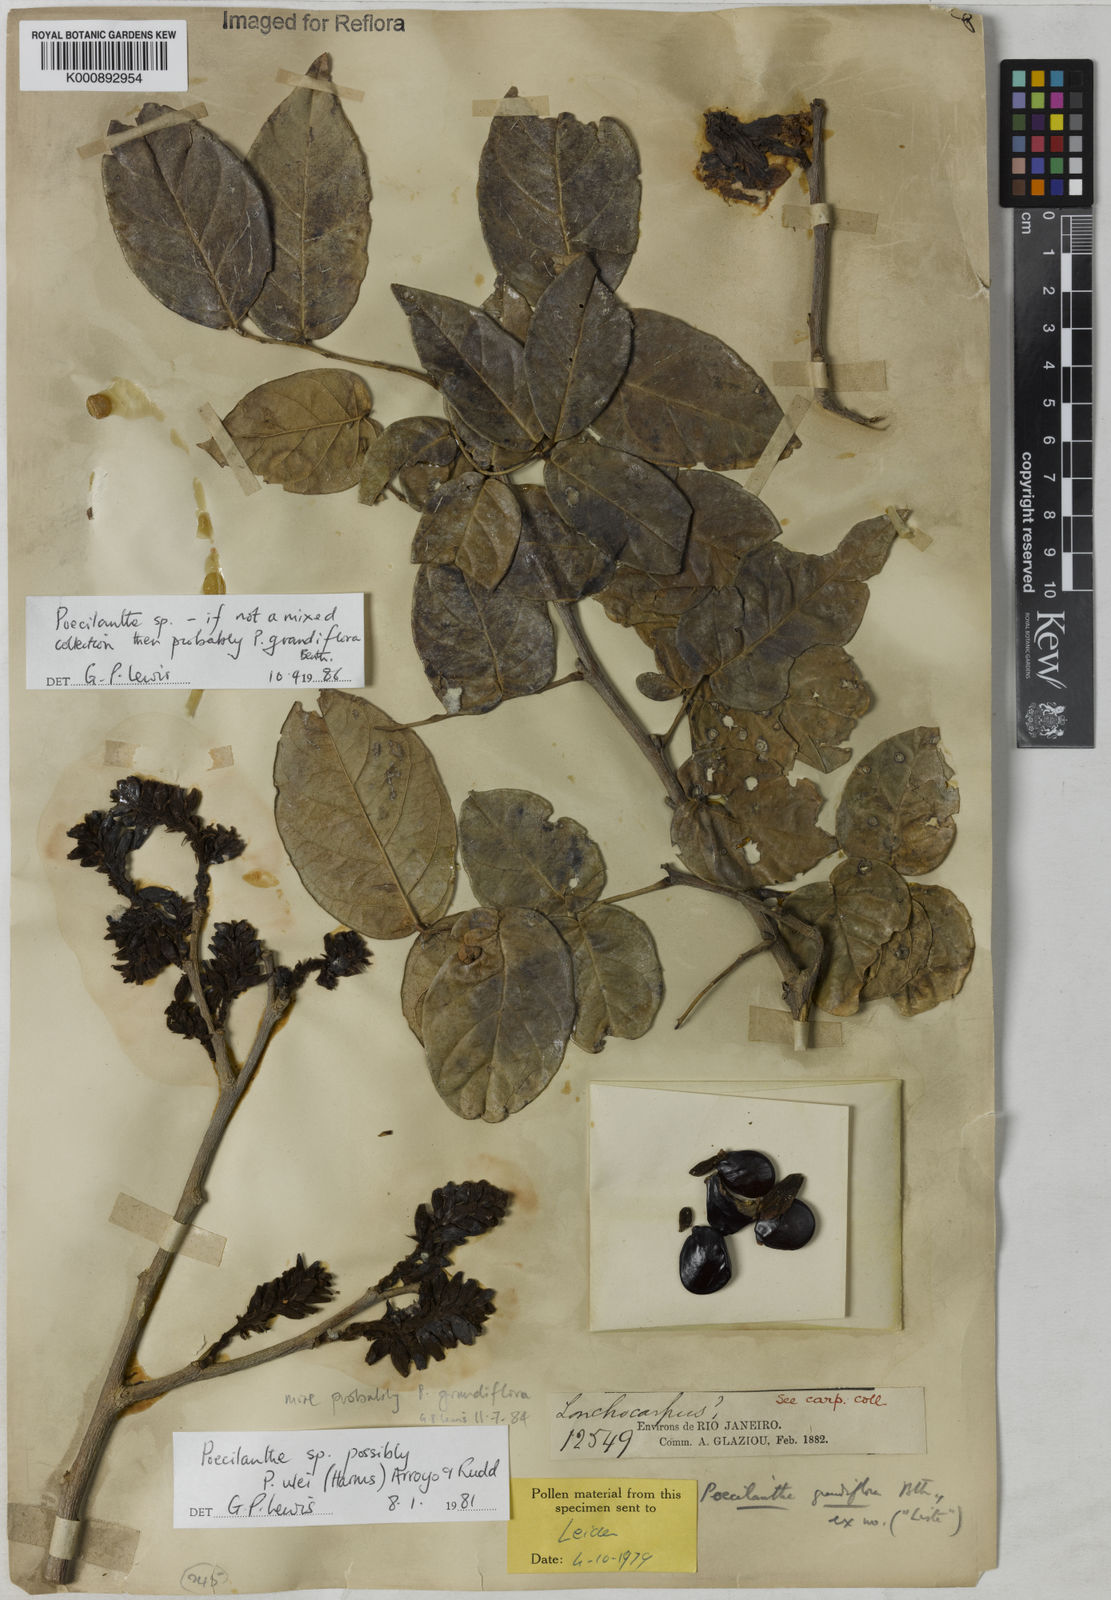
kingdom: Plantae
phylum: Tracheophyta
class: Magnoliopsida
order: Fabales
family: Fabaceae
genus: Poecilanthe
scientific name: Poecilanthe grandiflora
